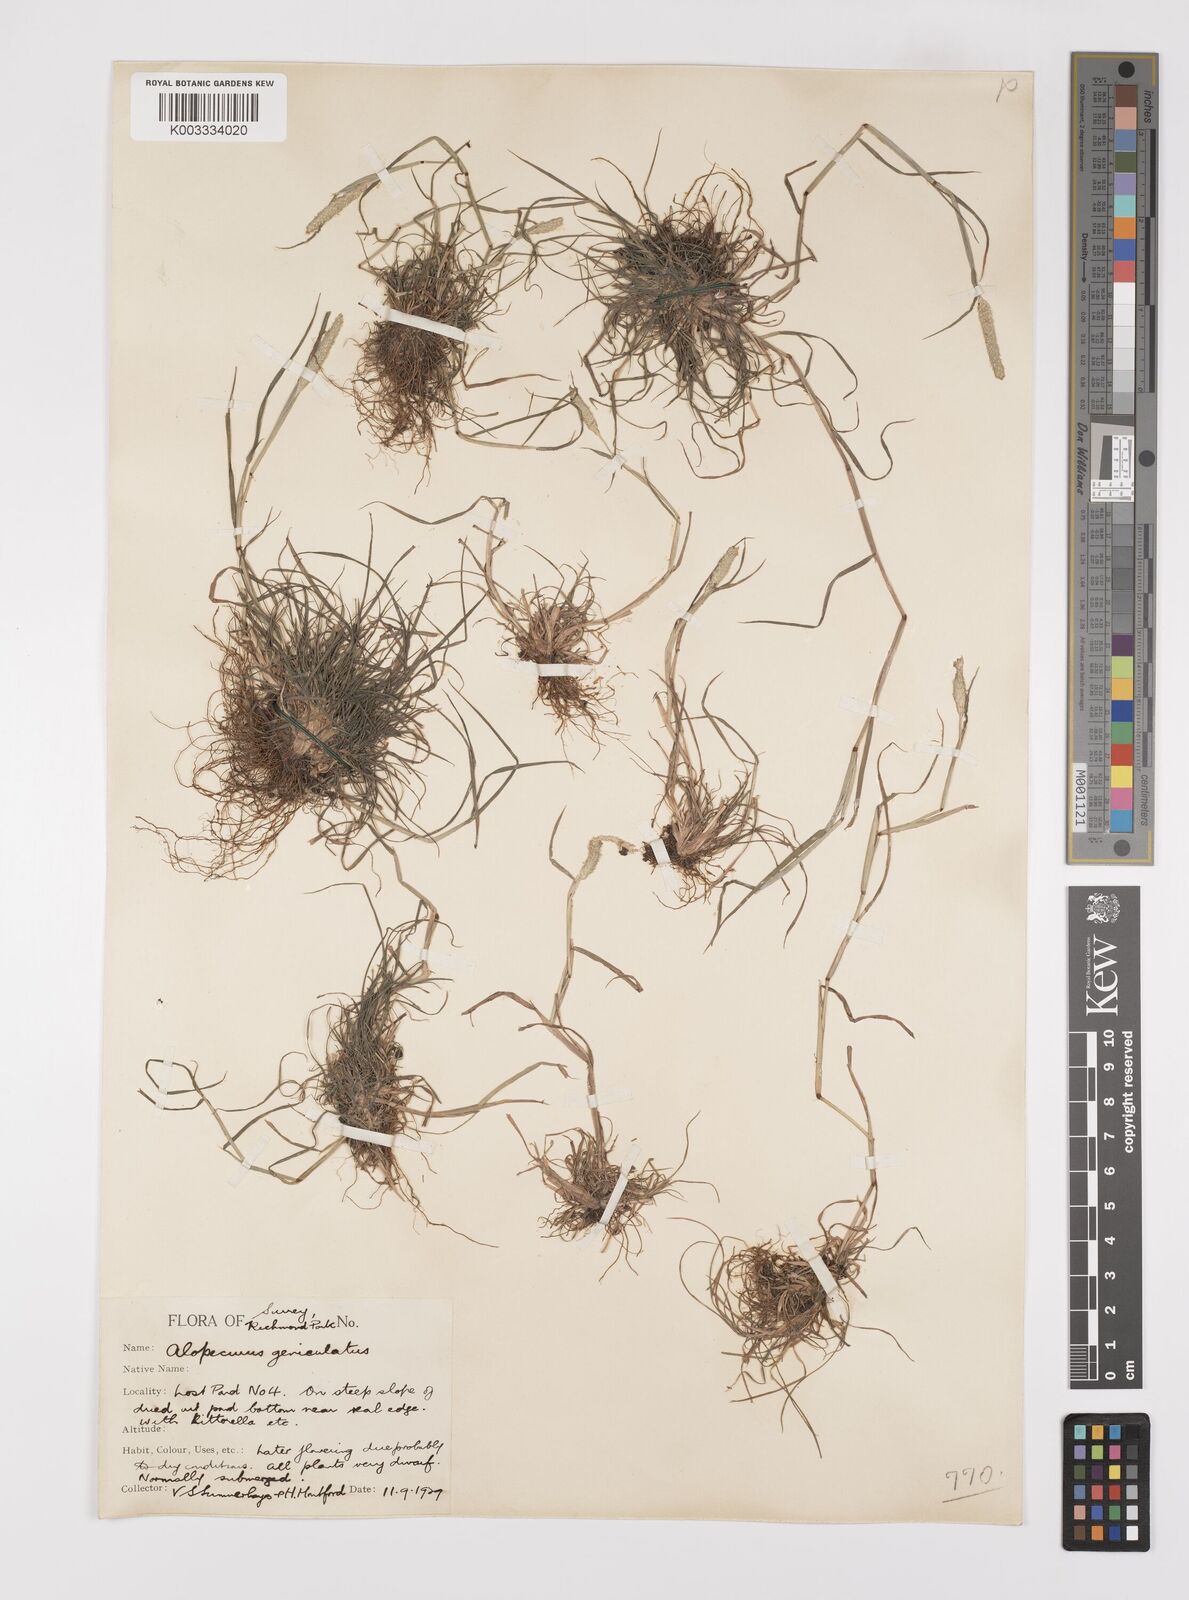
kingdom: Plantae
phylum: Tracheophyta
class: Liliopsida
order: Poales
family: Poaceae
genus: Alopecurus
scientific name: Alopecurus geniculatus
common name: Water foxtail
